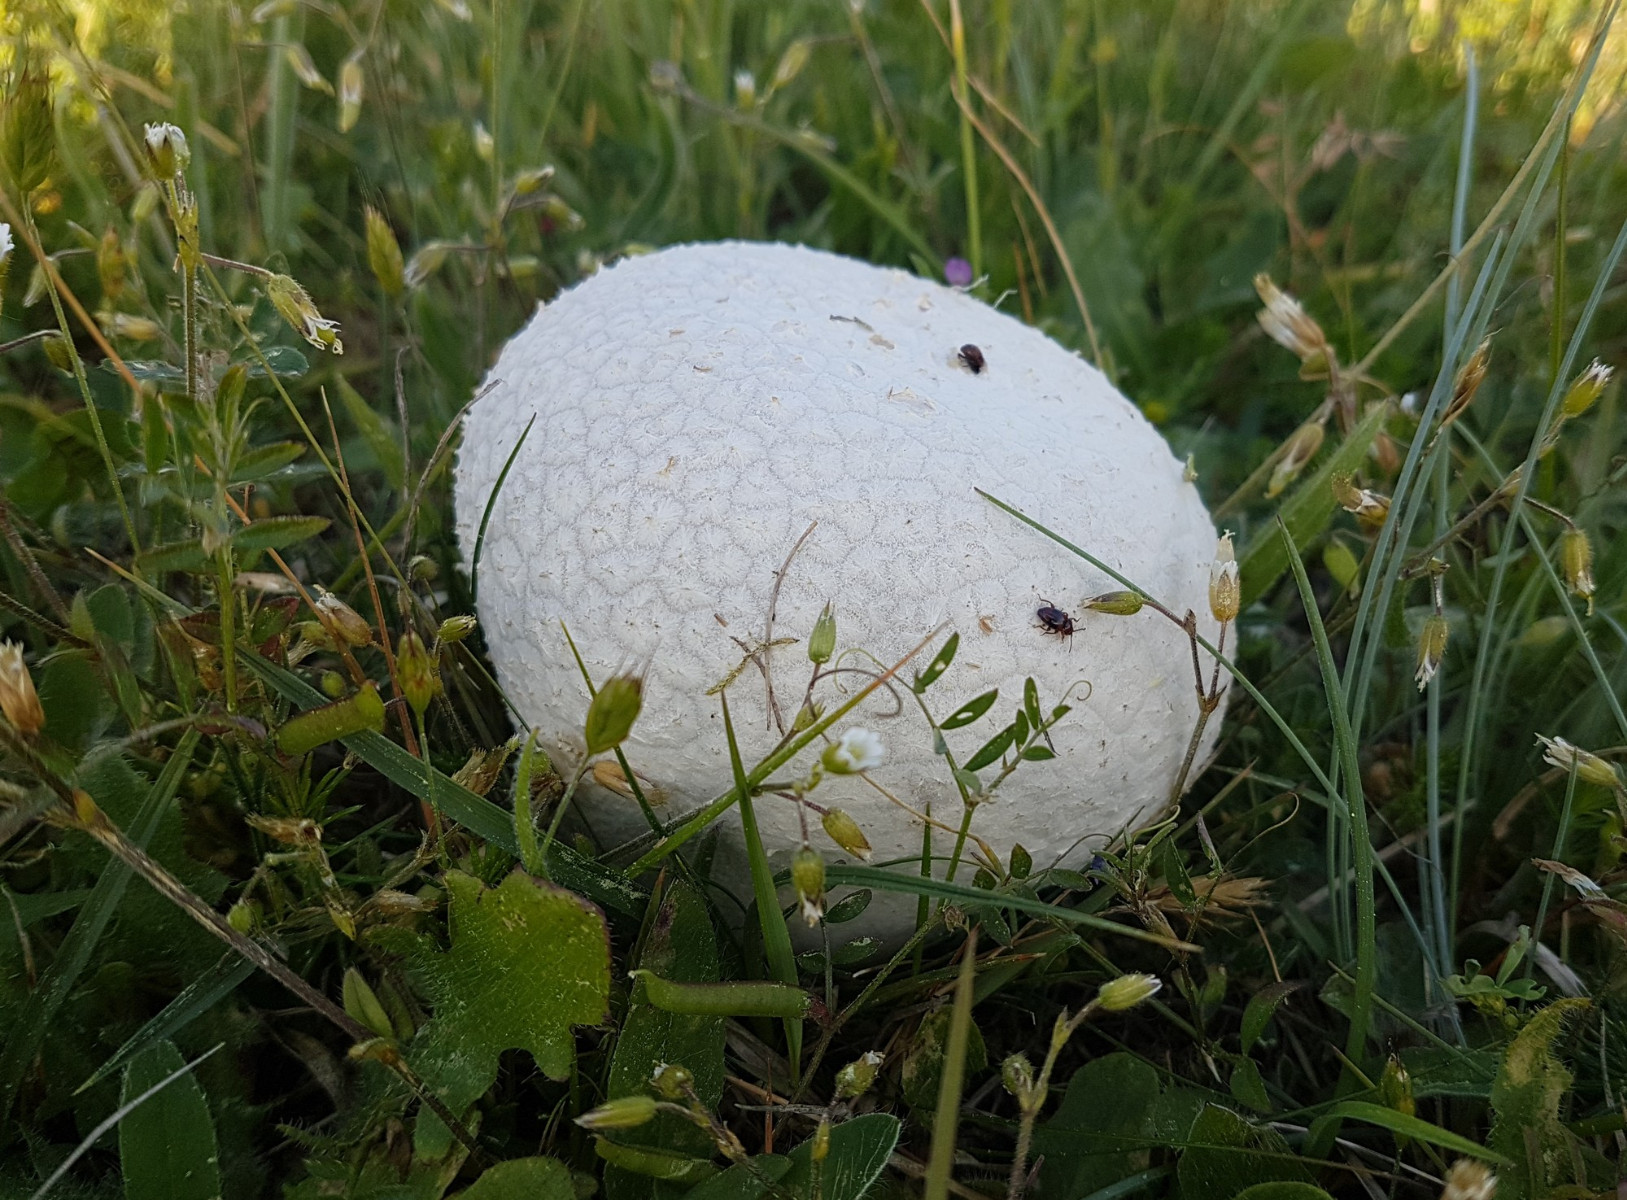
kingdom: Fungi
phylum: Basidiomycota
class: Agaricomycetes
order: Agaricales
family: Lycoperdaceae
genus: Bovistella
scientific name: Bovistella utriformis
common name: skællet støvbold
